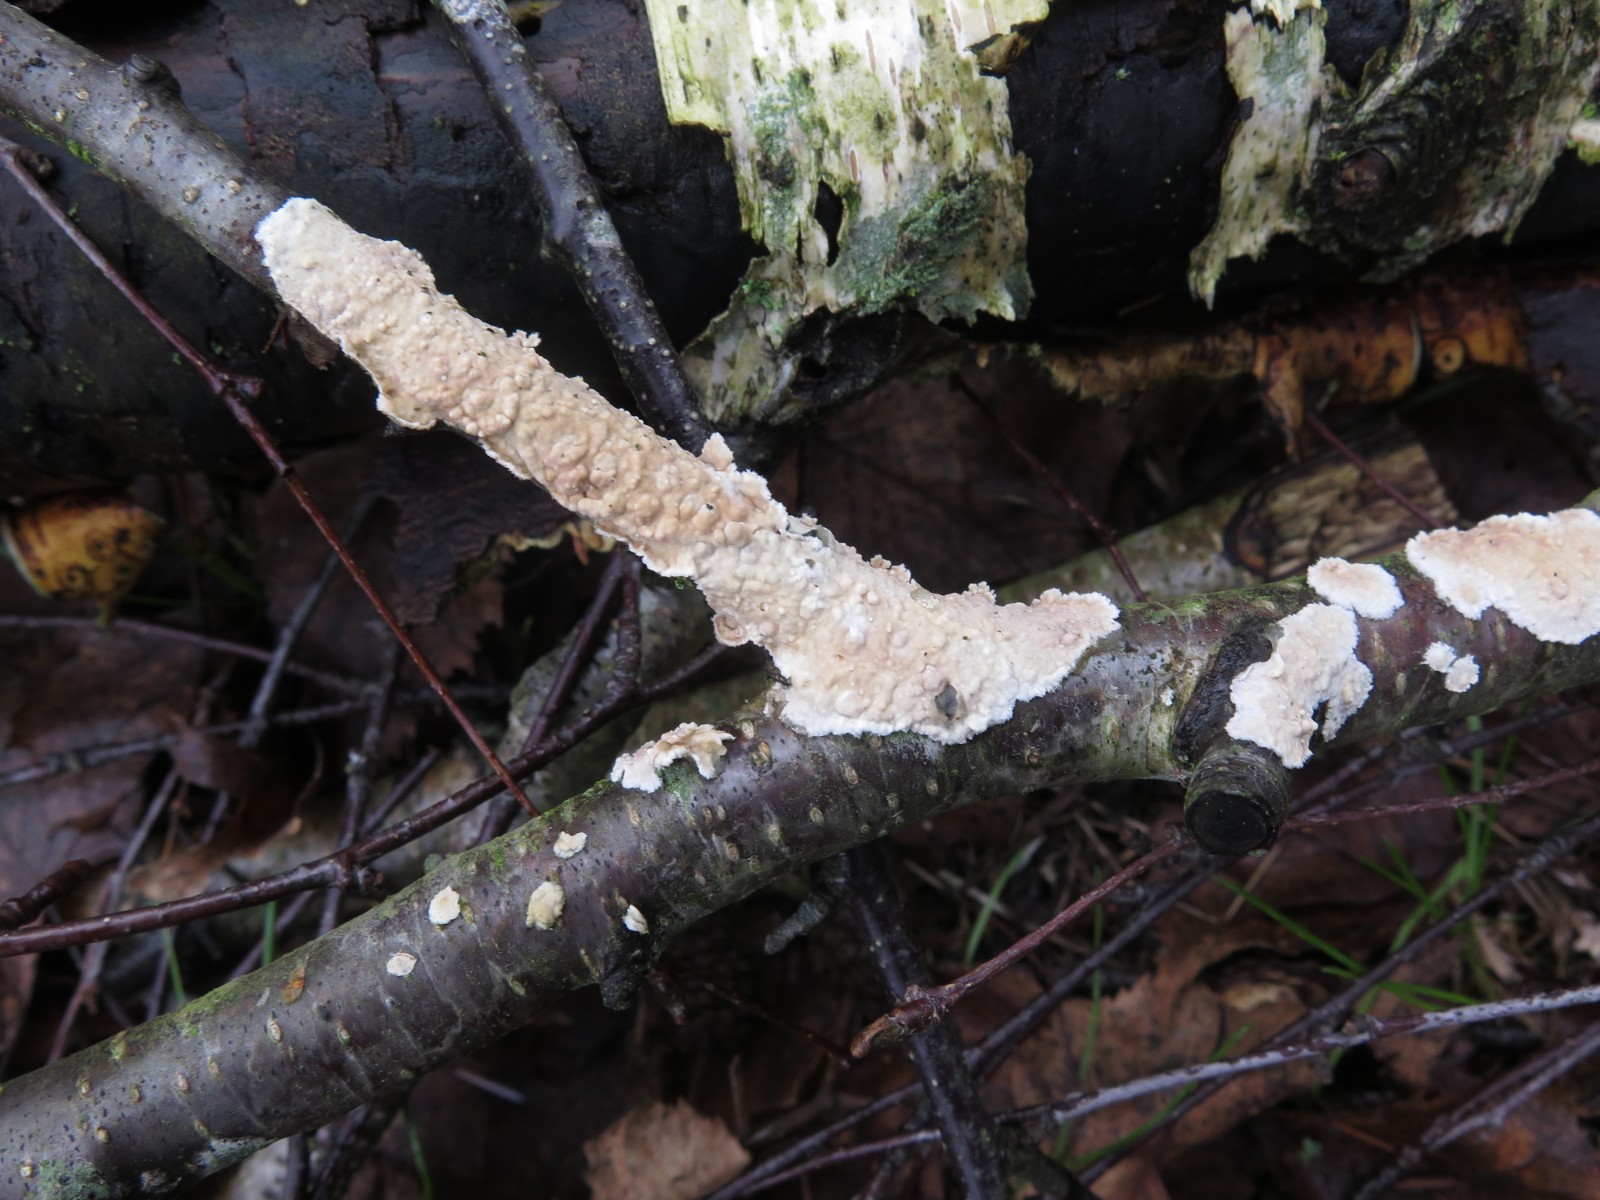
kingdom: Fungi
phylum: Basidiomycota
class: Agaricomycetes
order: Agaricales
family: Physalacriaceae
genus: Cylindrobasidium
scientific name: Cylindrobasidium evolvens
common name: sprækkehinde
